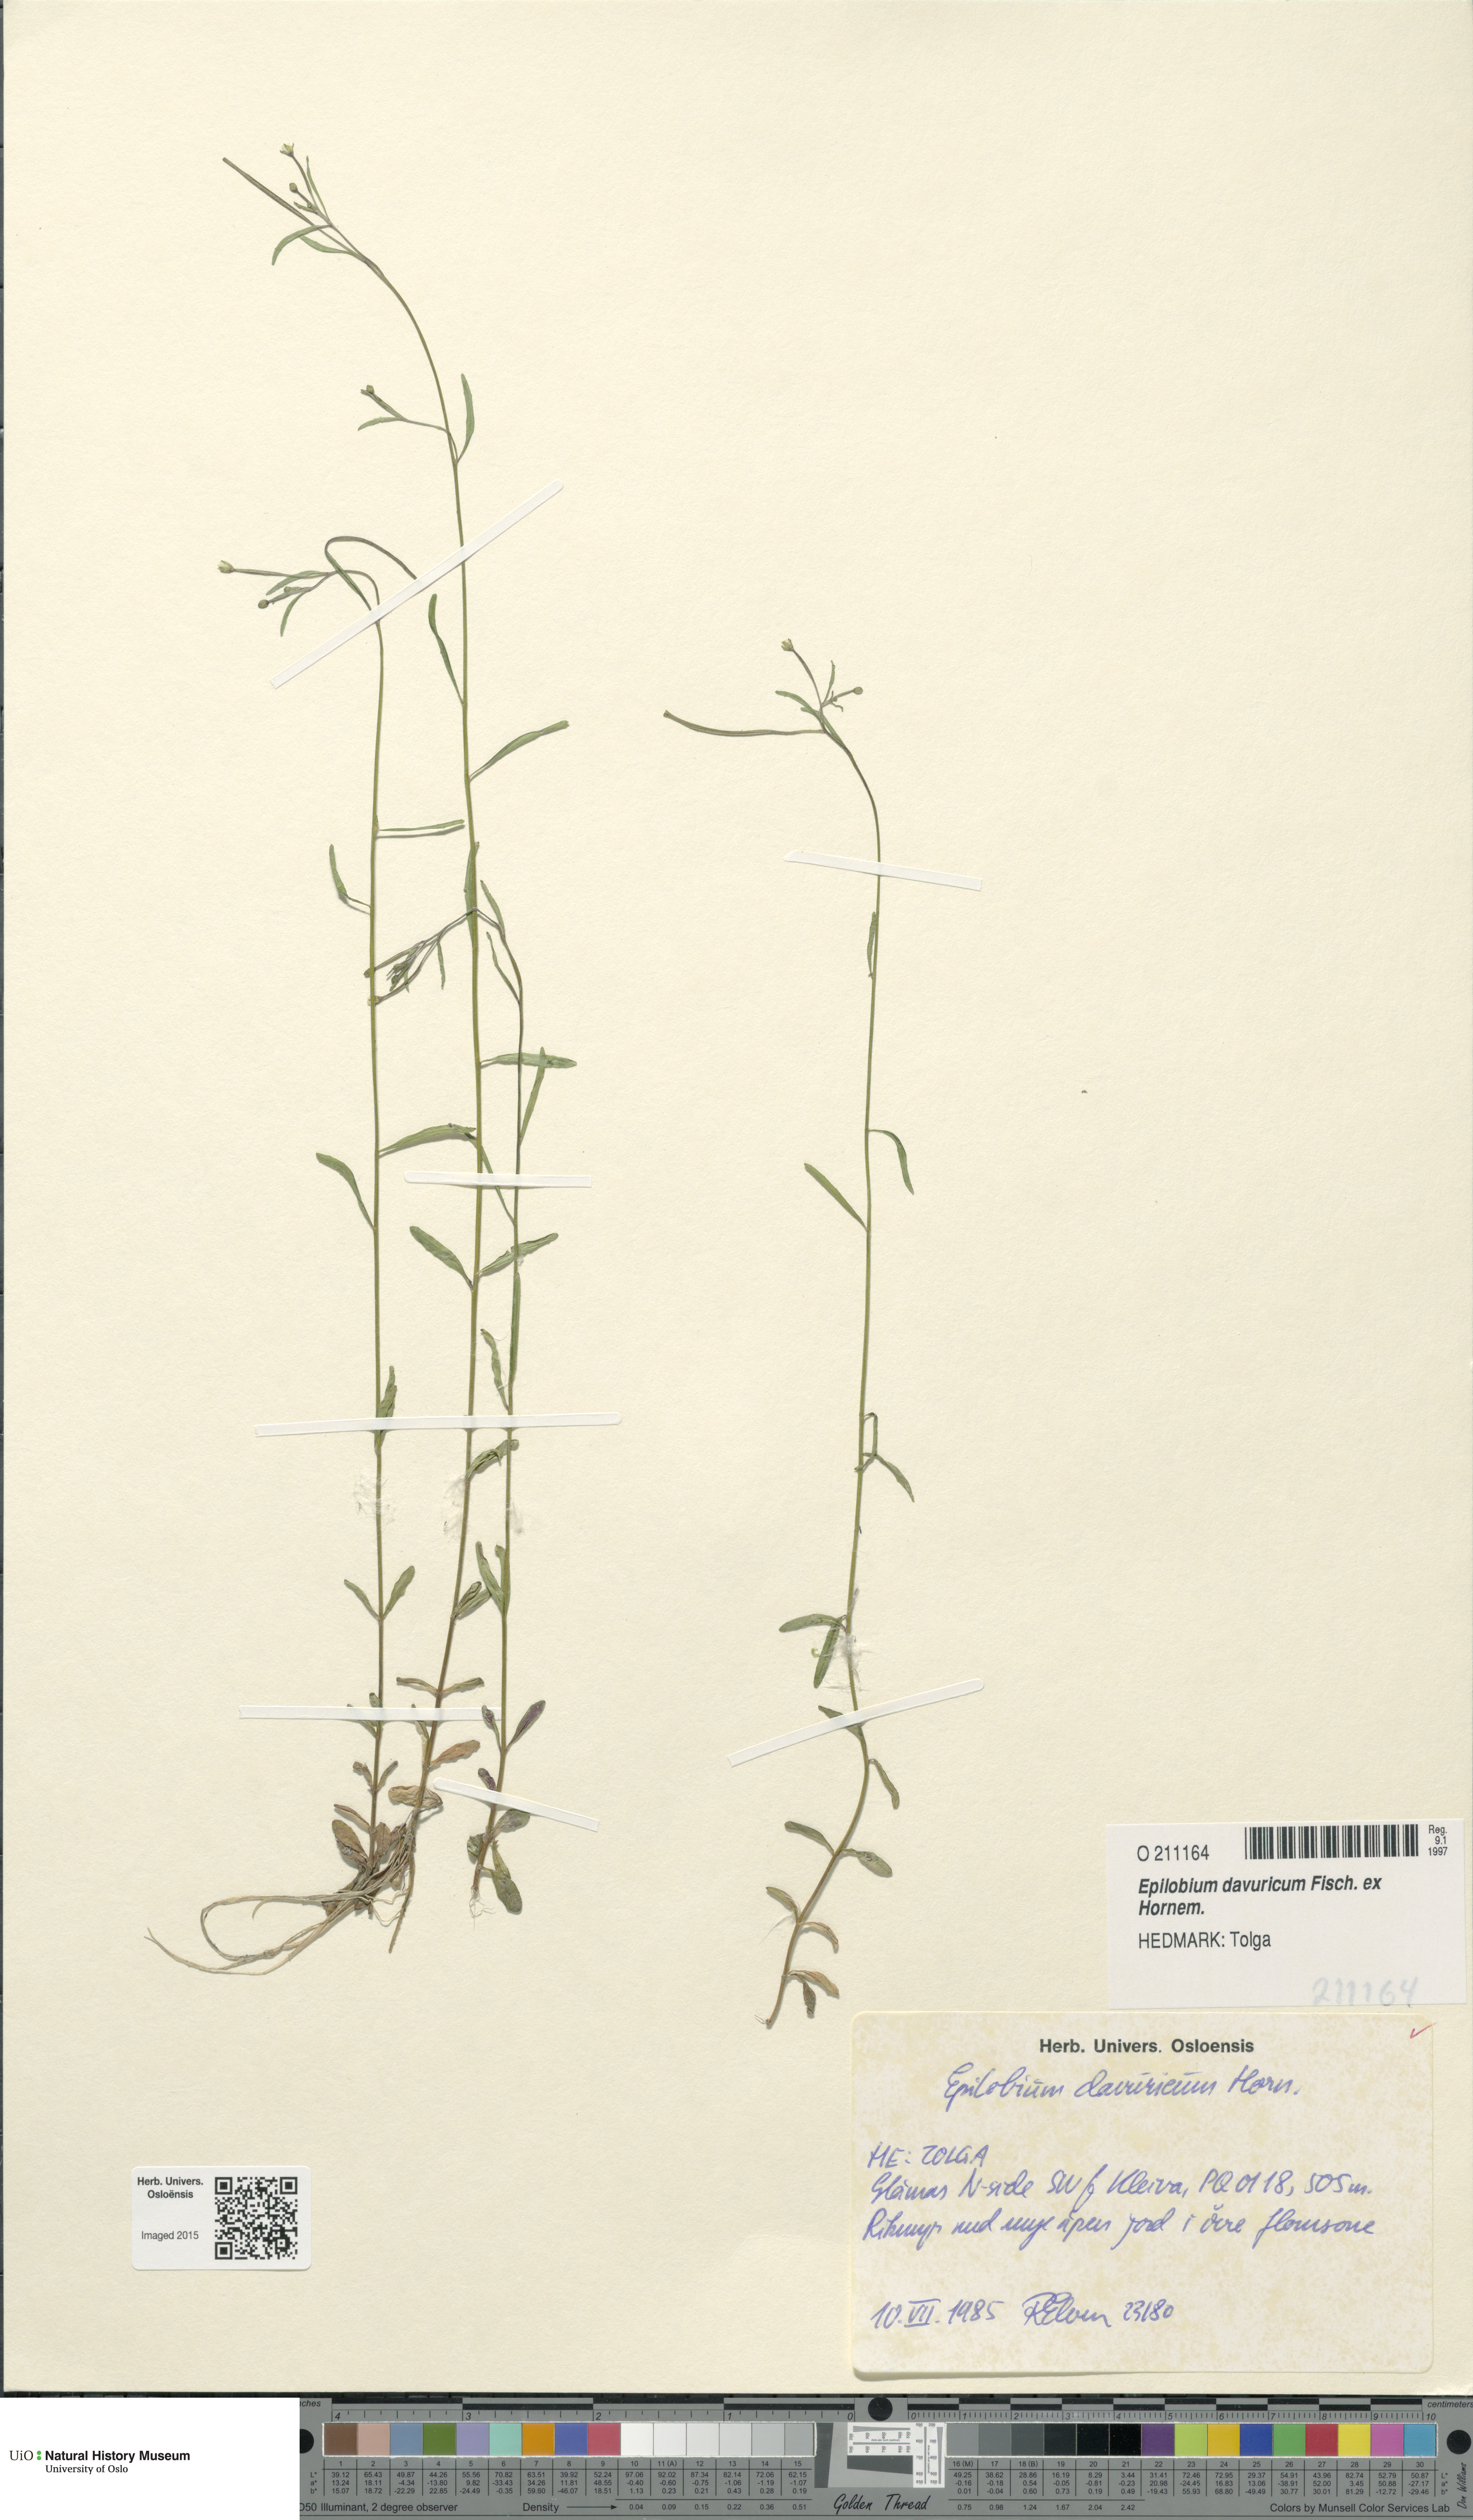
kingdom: Plantae
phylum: Tracheophyta
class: Magnoliopsida
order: Myrtales
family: Onagraceae
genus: Epilobium
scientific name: Epilobium davuricum
